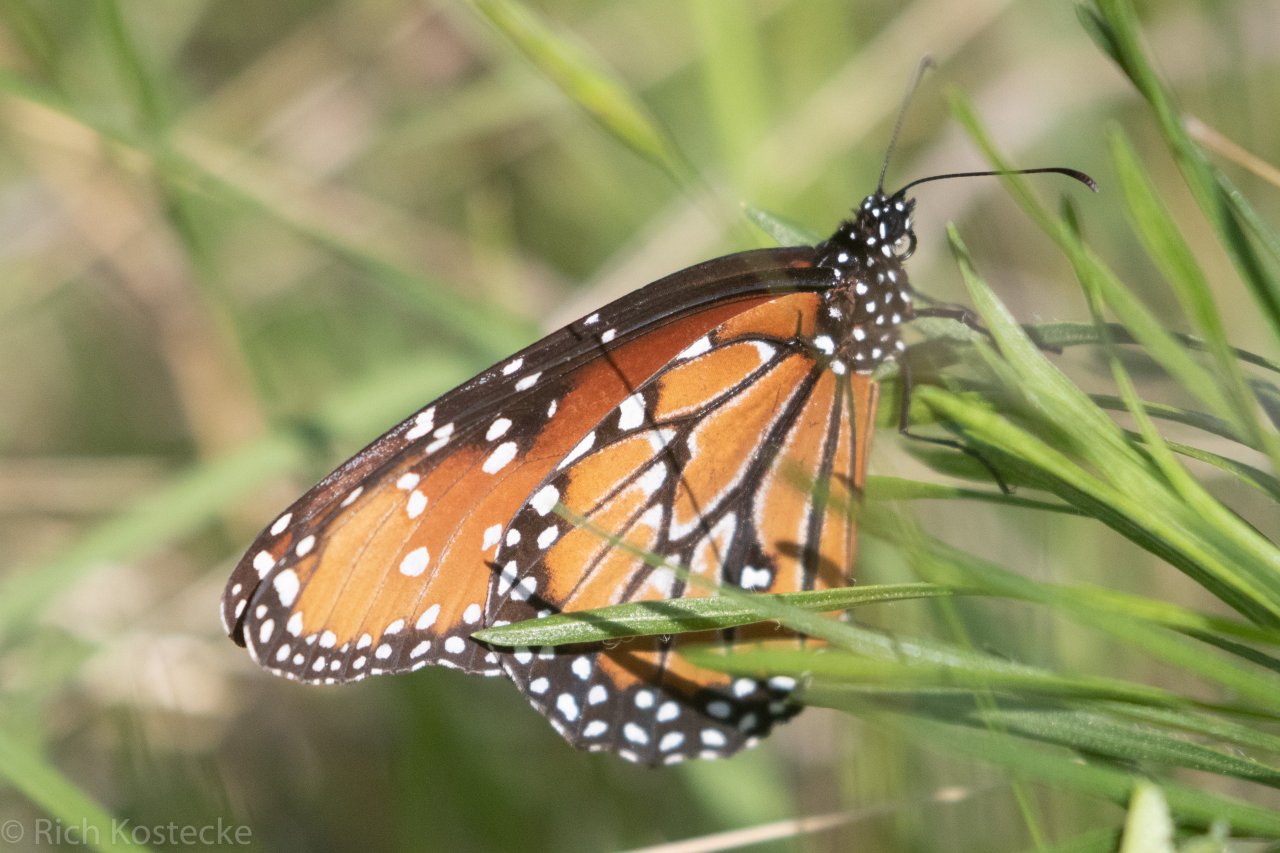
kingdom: Animalia
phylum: Arthropoda
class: Insecta
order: Lepidoptera
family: Nymphalidae
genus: Danaus
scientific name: Danaus gilippus
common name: Queen
